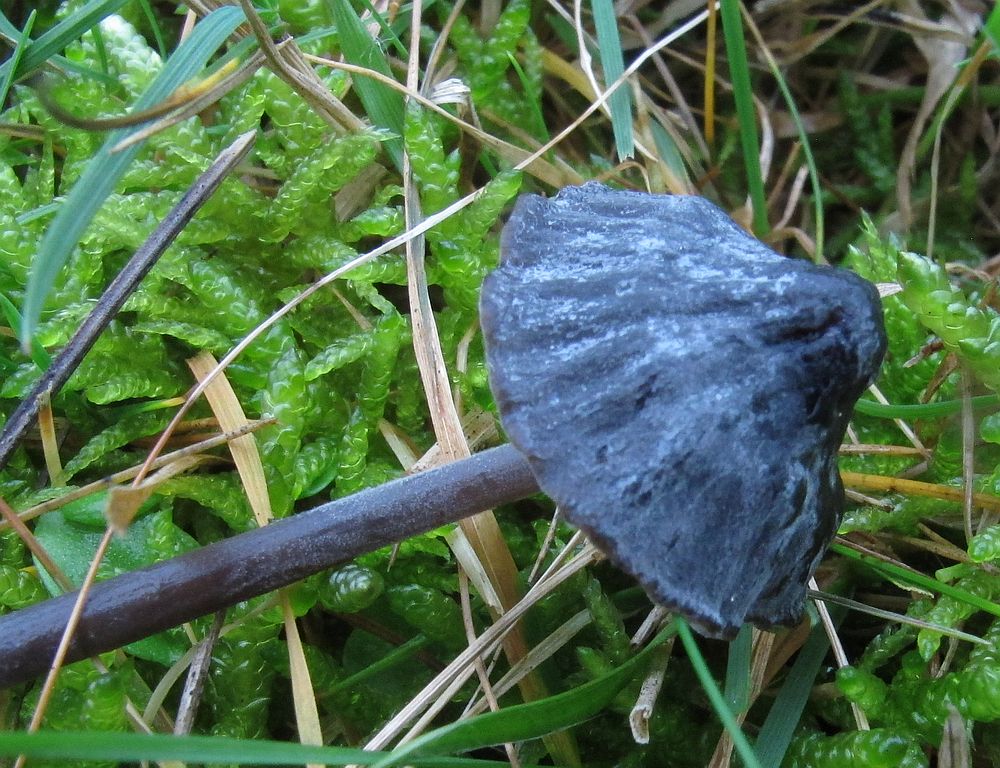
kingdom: Fungi
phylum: Basidiomycota
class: Agaricomycetes
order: Agaricales
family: Mycenaceae
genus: Mycena
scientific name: Mycena aetites
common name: plæne-huesvamp
